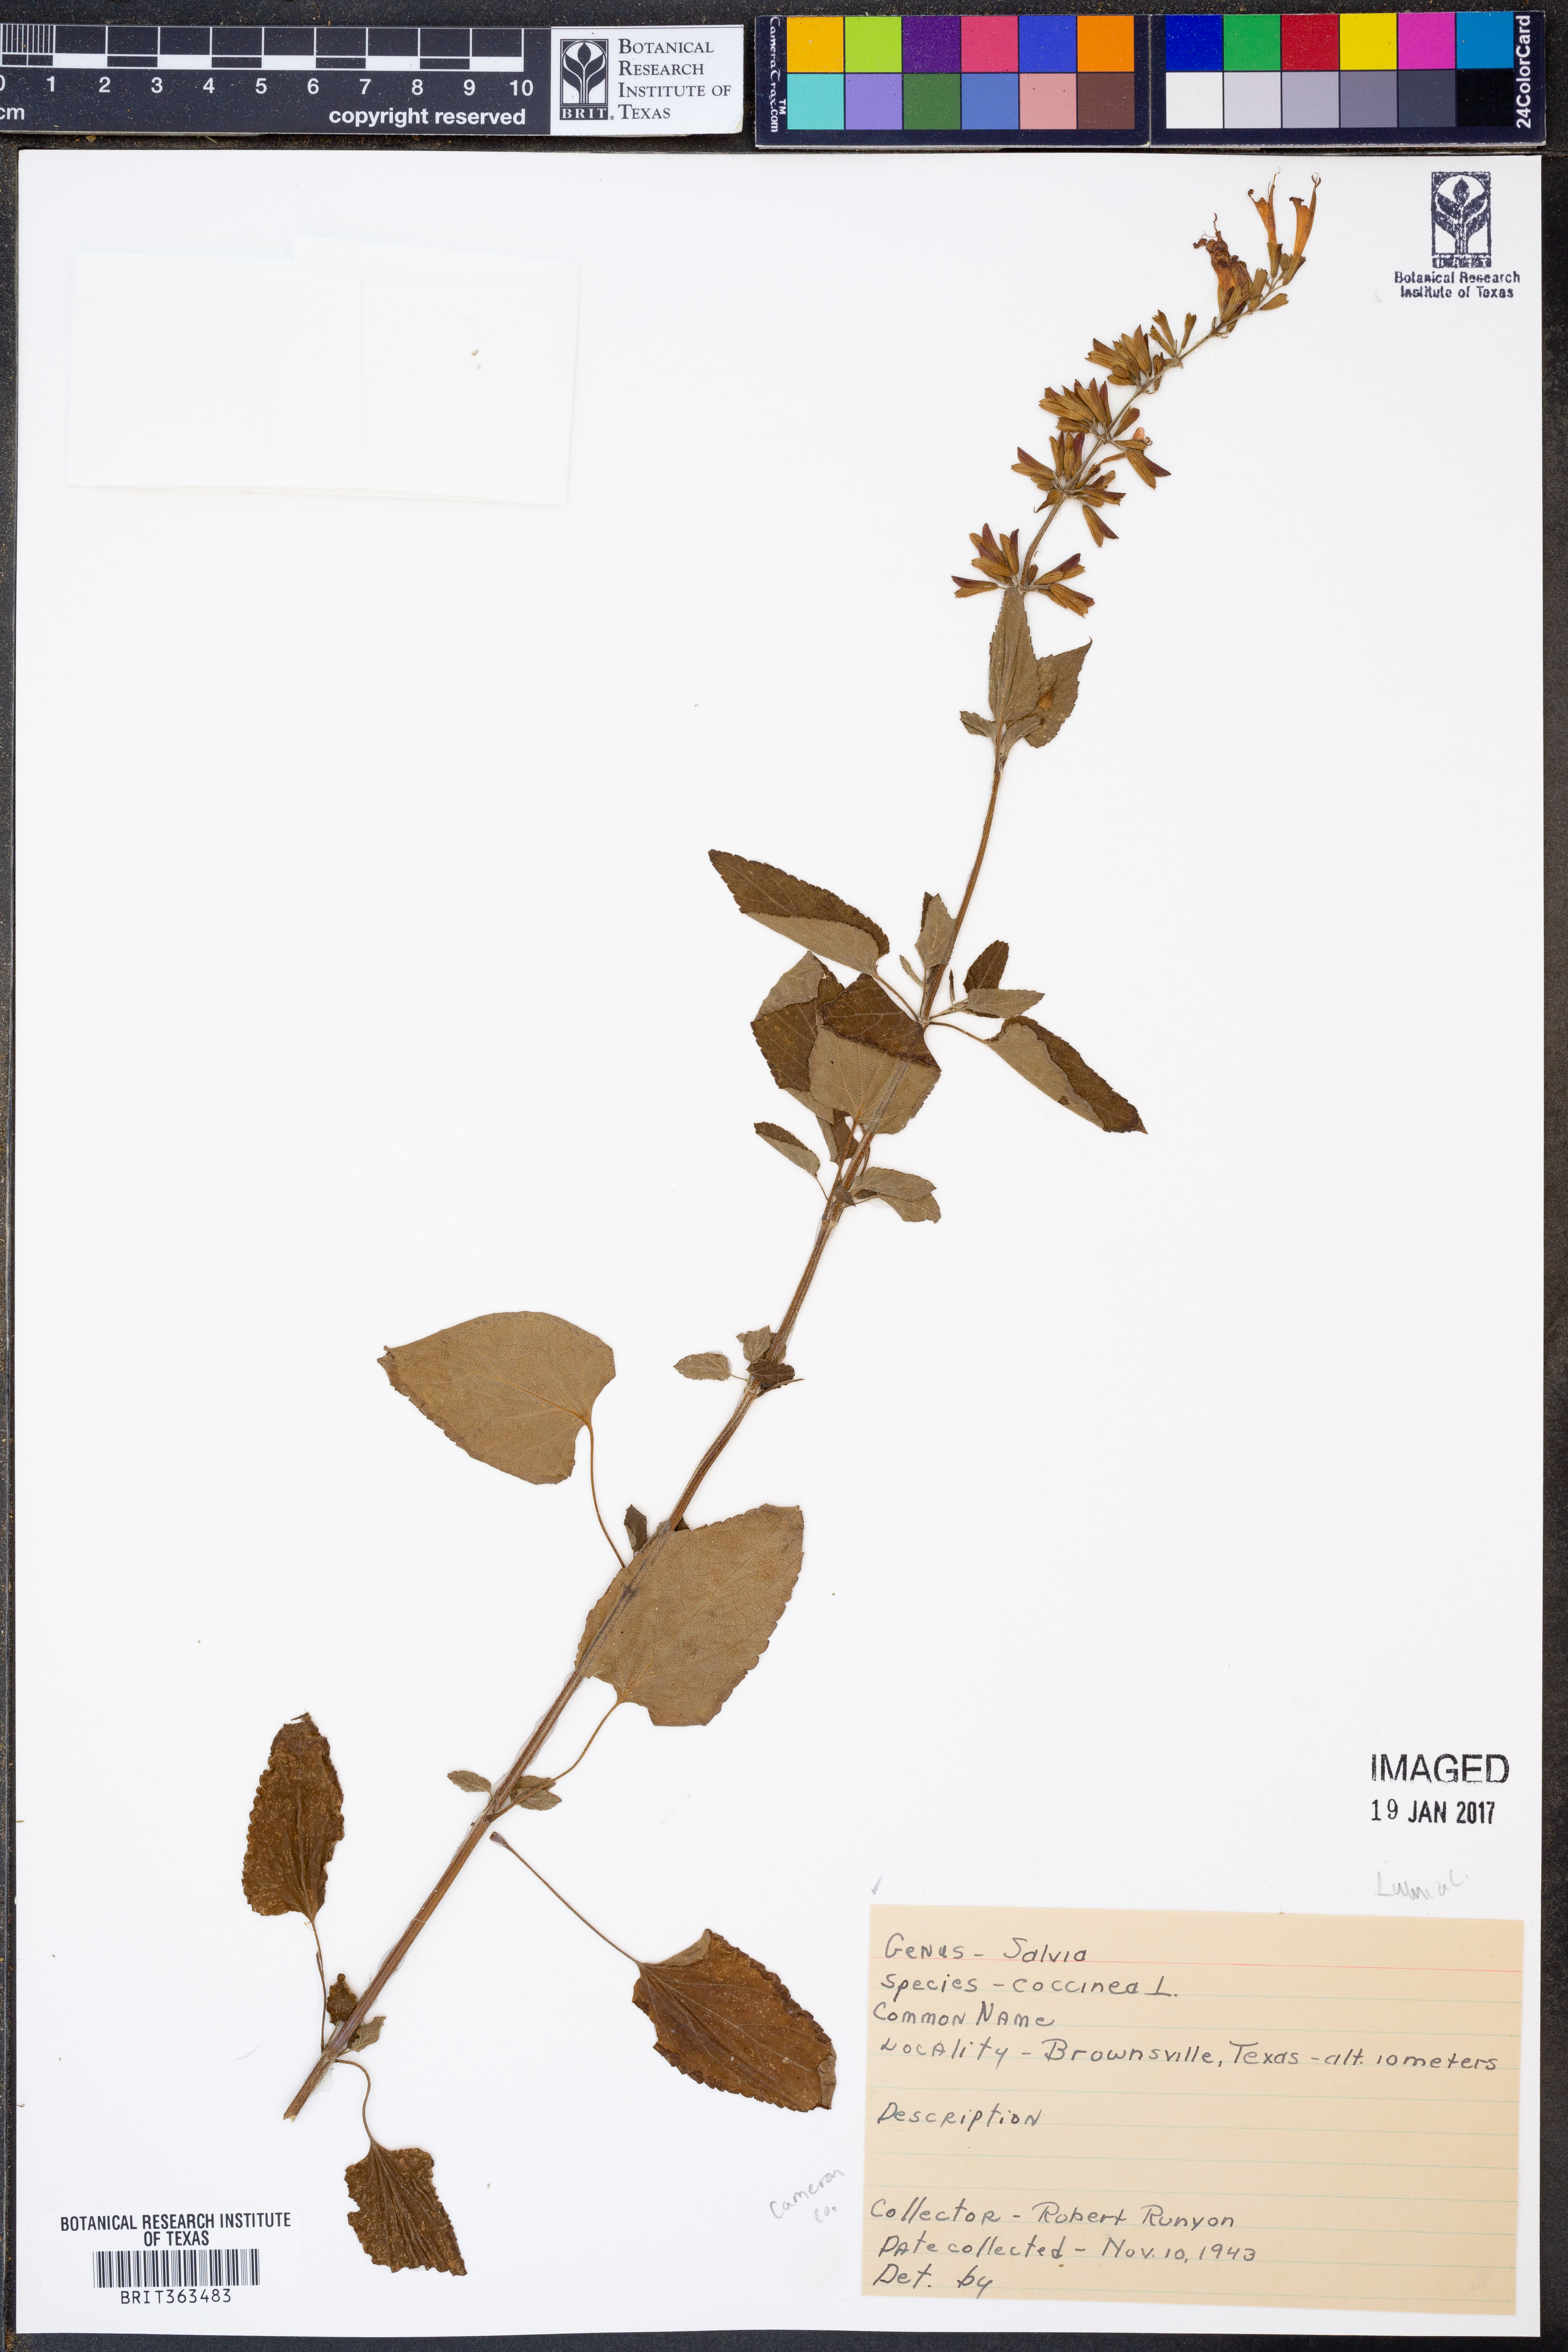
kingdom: Plantae
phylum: Tracheophyta
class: Magnoliopsida
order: Lamiales
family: Lamiaceae
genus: Salvia
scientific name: Salvia coccinea
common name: Blood sage
